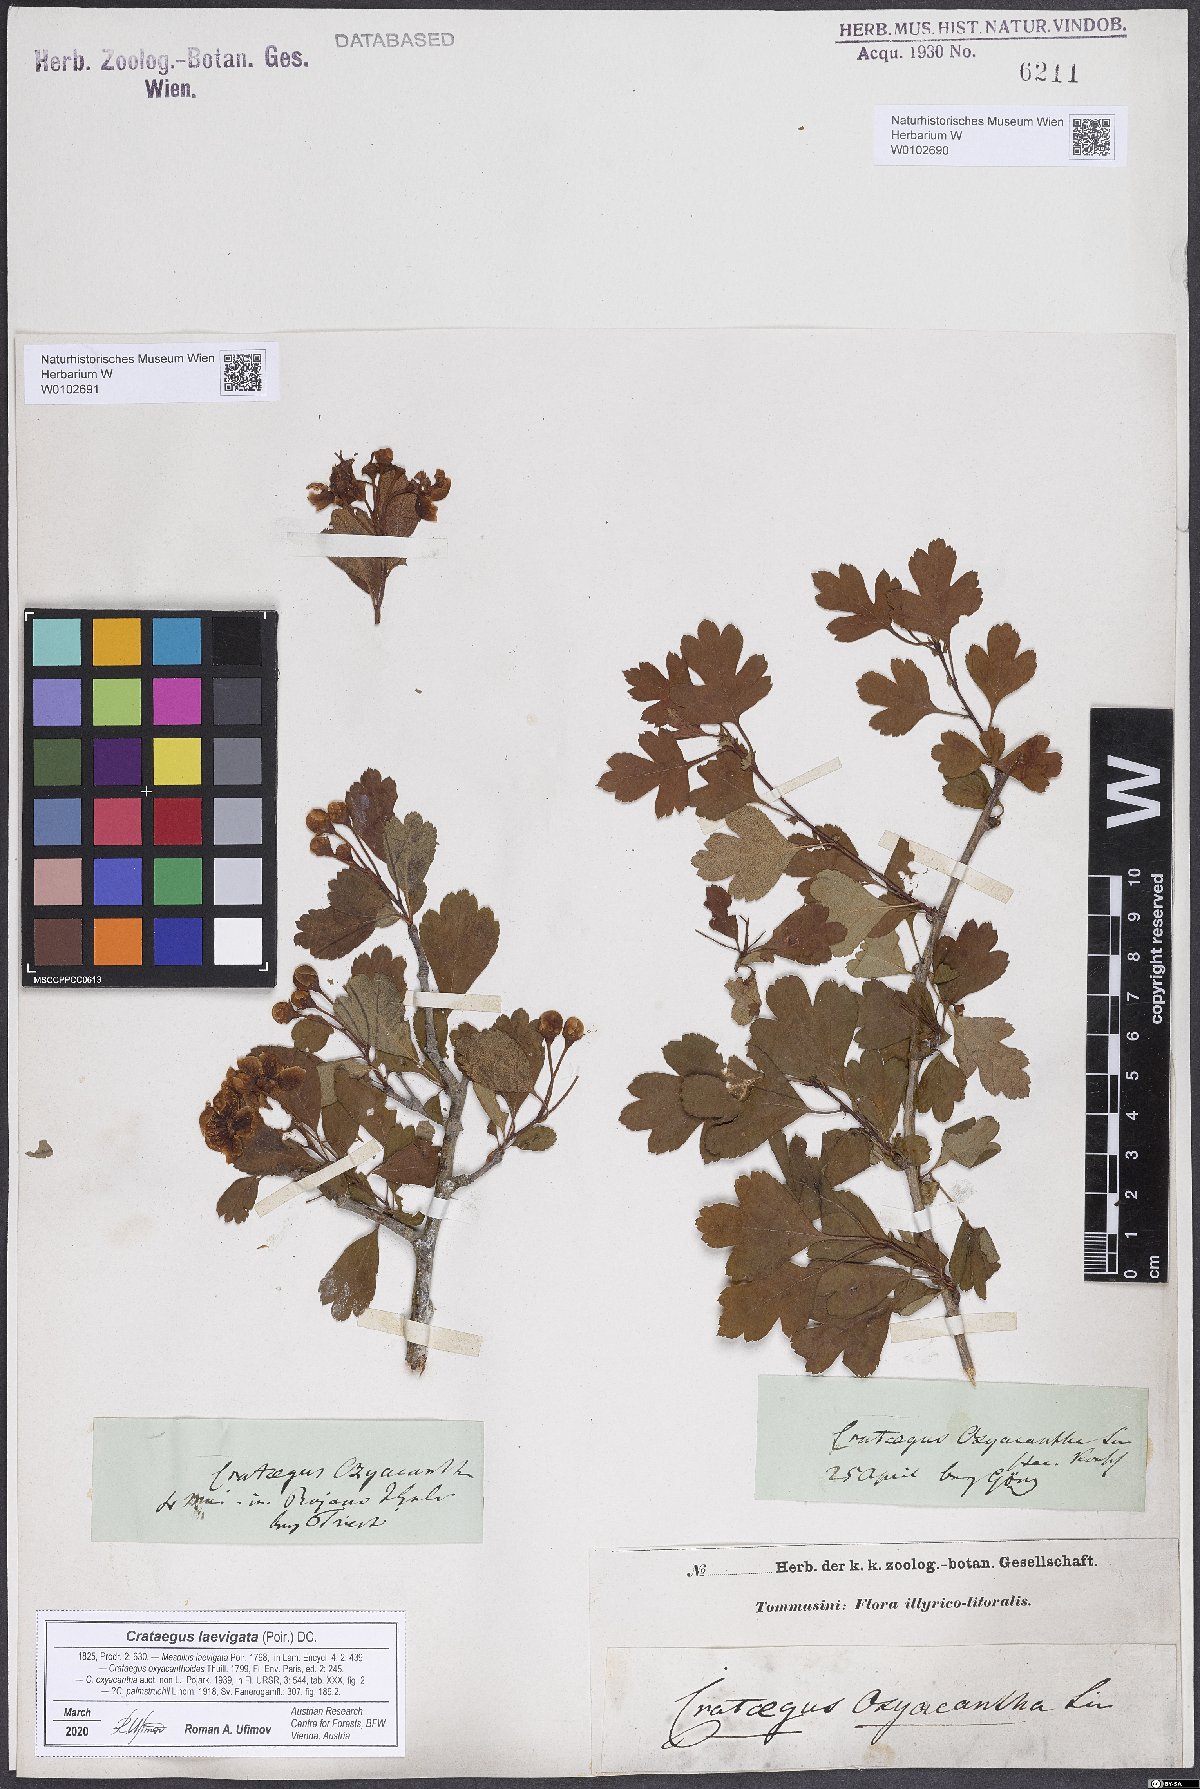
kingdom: Plantae
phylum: Tracheophyta
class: Magnoliopsida
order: Rosales
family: Rosaceae
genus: Crataegus
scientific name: Crataegus laevigata
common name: Midland hawthorn
